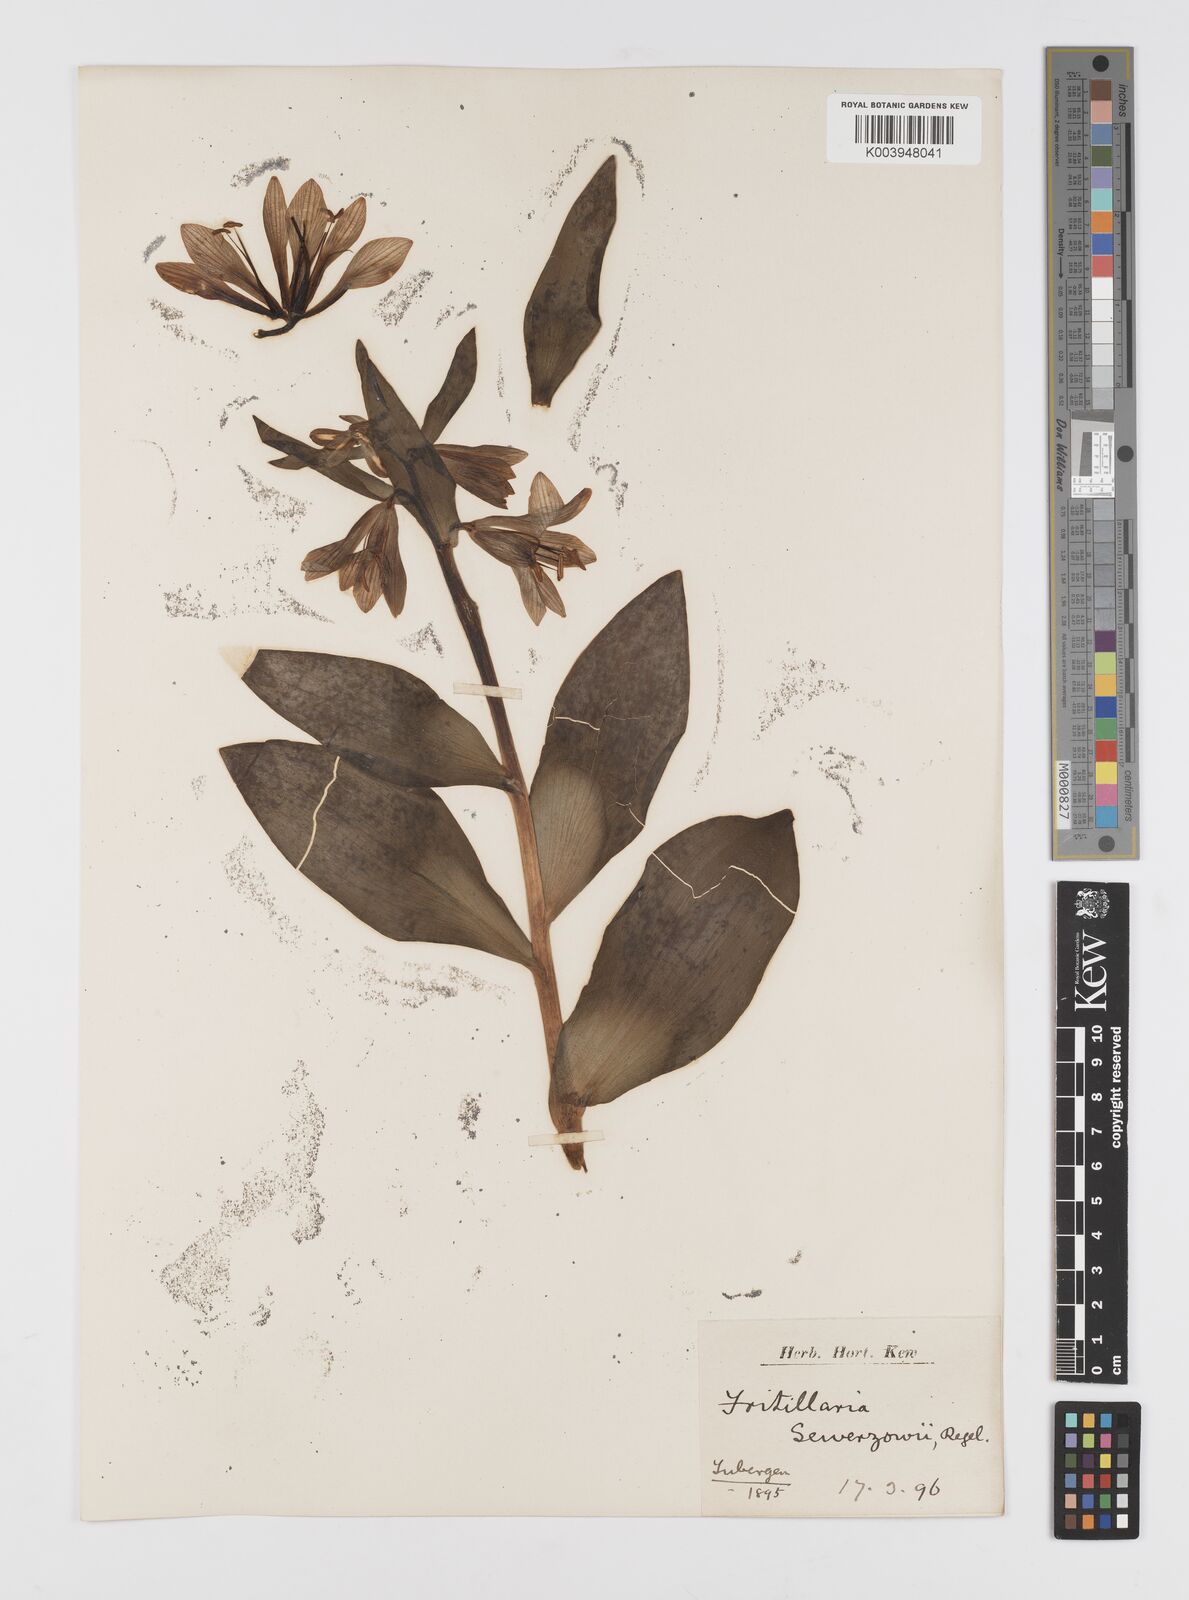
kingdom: Plantae
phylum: Tracheophyta
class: Liliopsida
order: Liliales
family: Liliaceae
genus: Fritillaria
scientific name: Fritillaria
